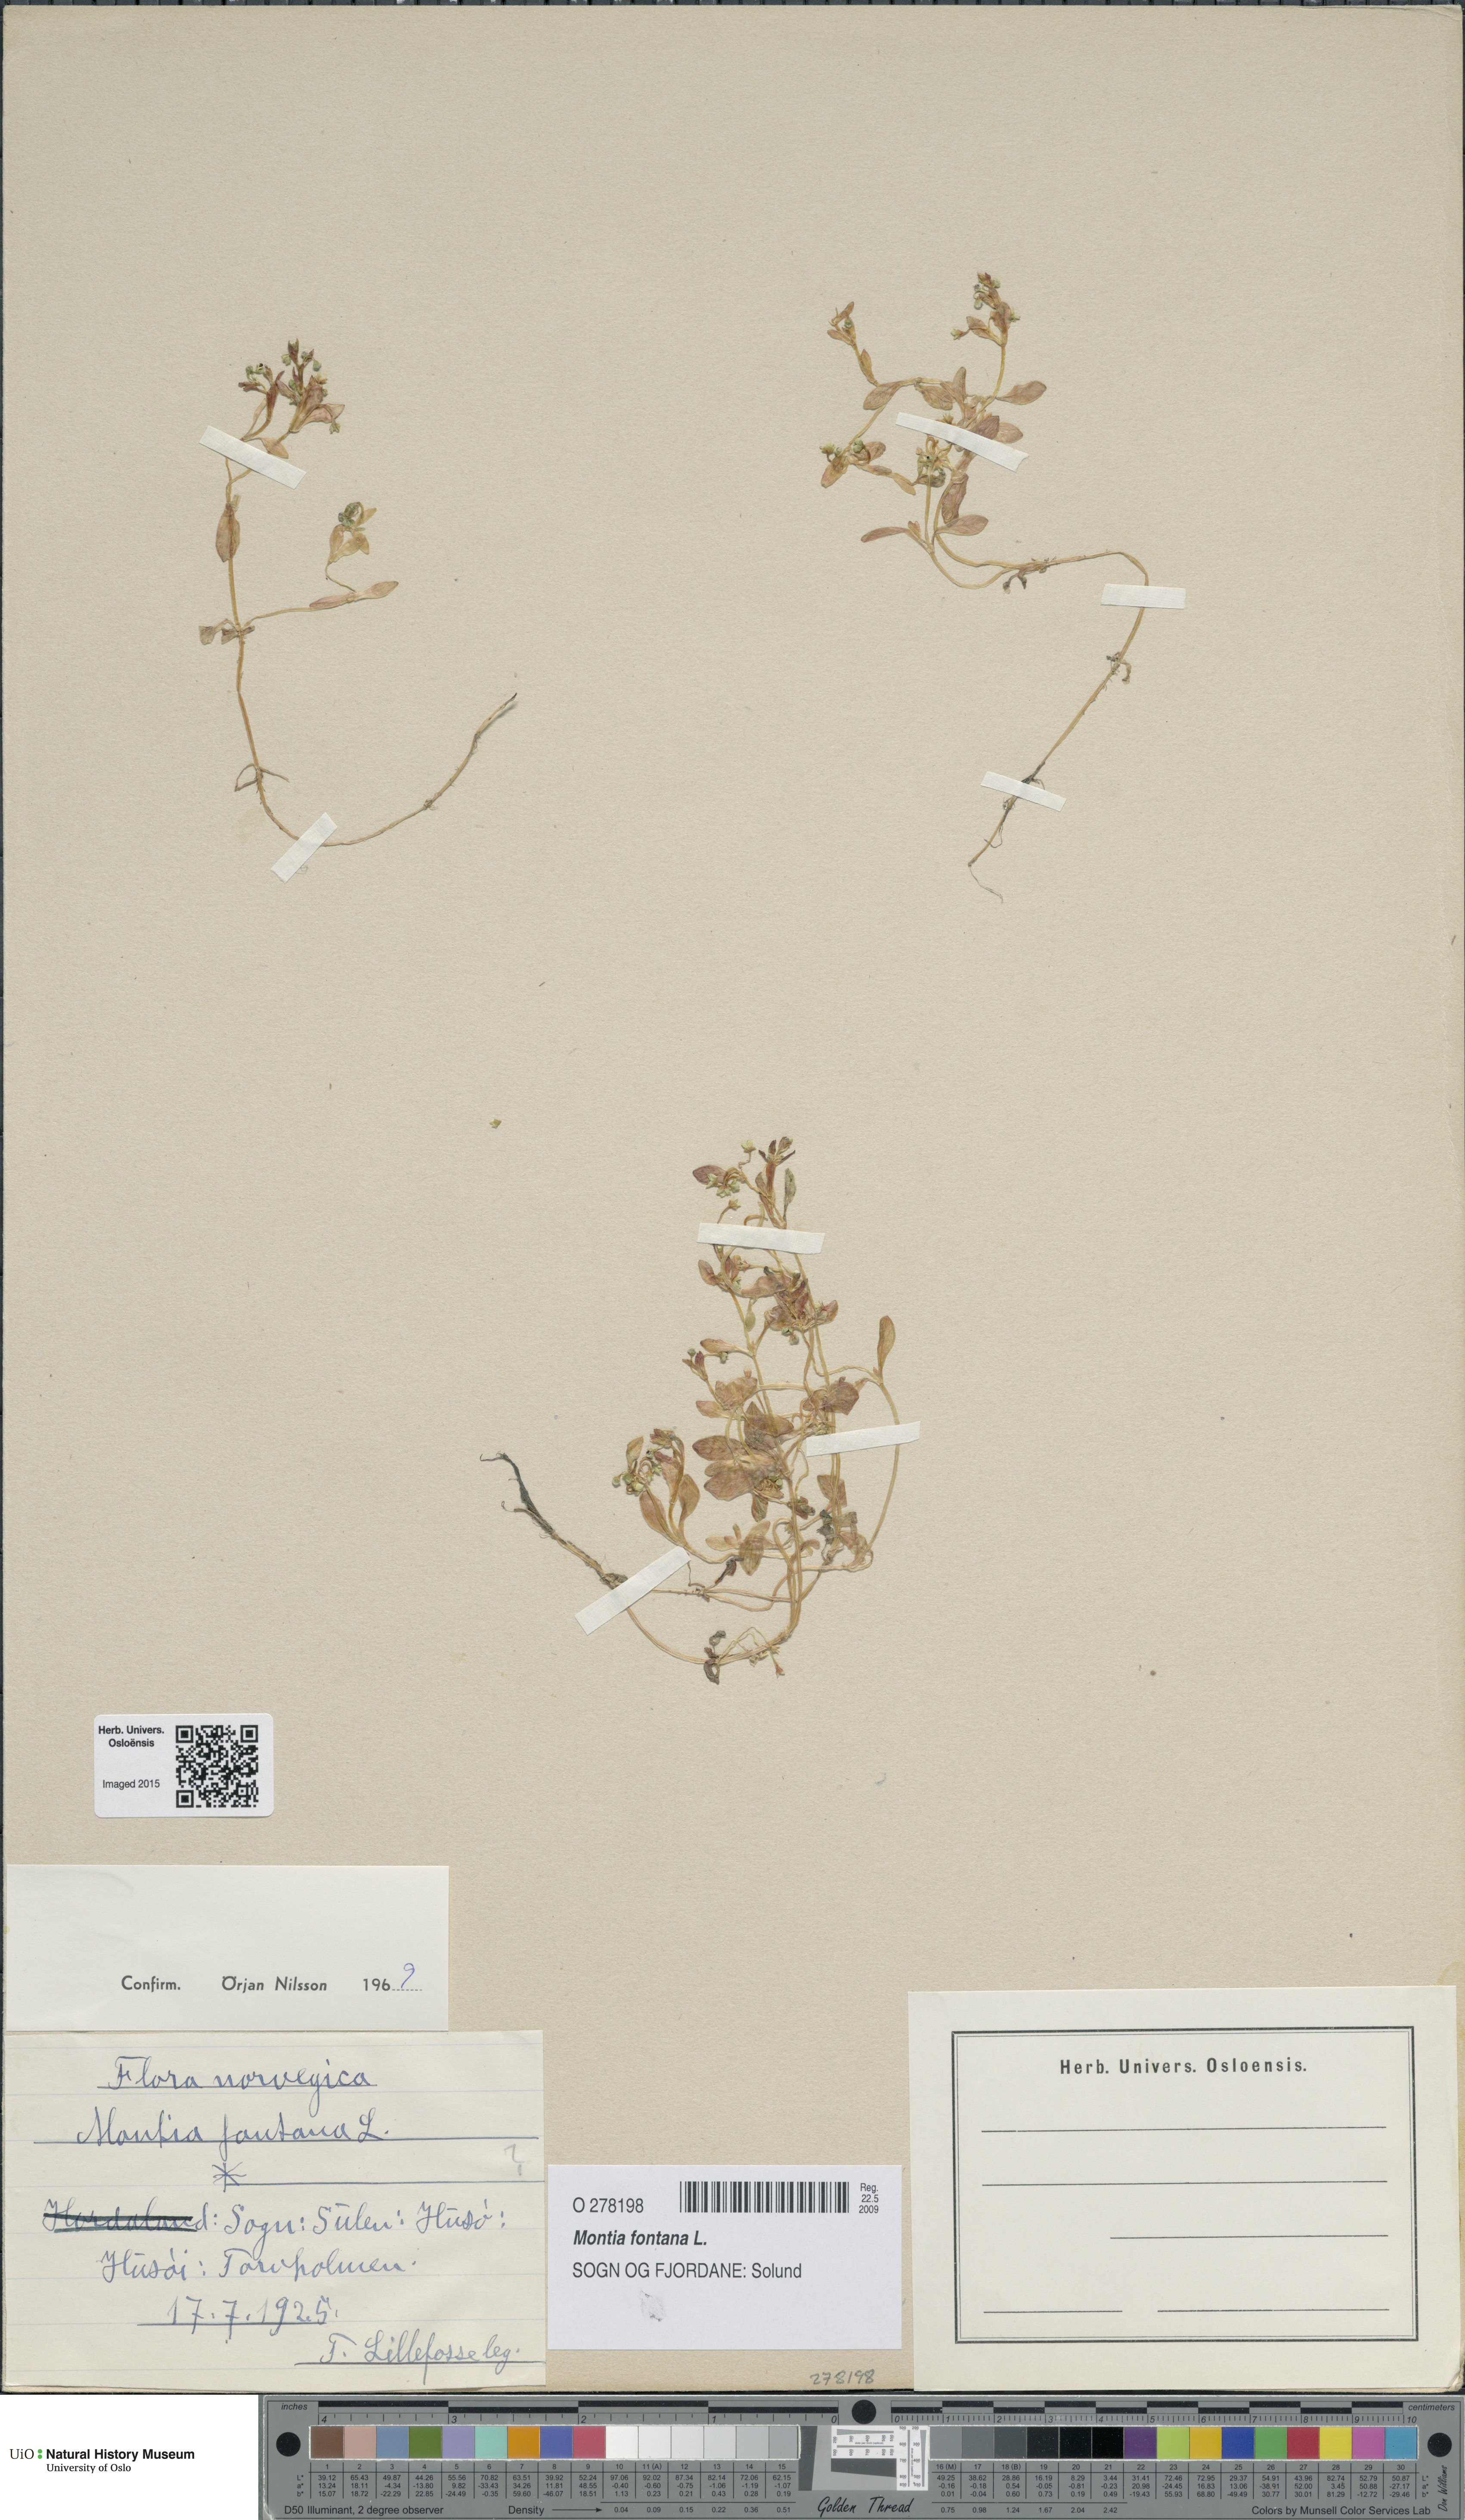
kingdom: Plantae
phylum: Tracheophyta
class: Magnoliopsida
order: Caryophyllales
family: Montiaceae
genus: Montia
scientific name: Montia fontana
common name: Blinks
